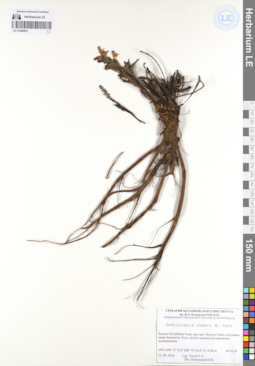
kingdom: Plantae
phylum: Tracheophyta
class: Magnoliopsida
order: Lamiales
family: Orobanchaceae
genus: Pedicularis
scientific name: Pedicularis oederi
